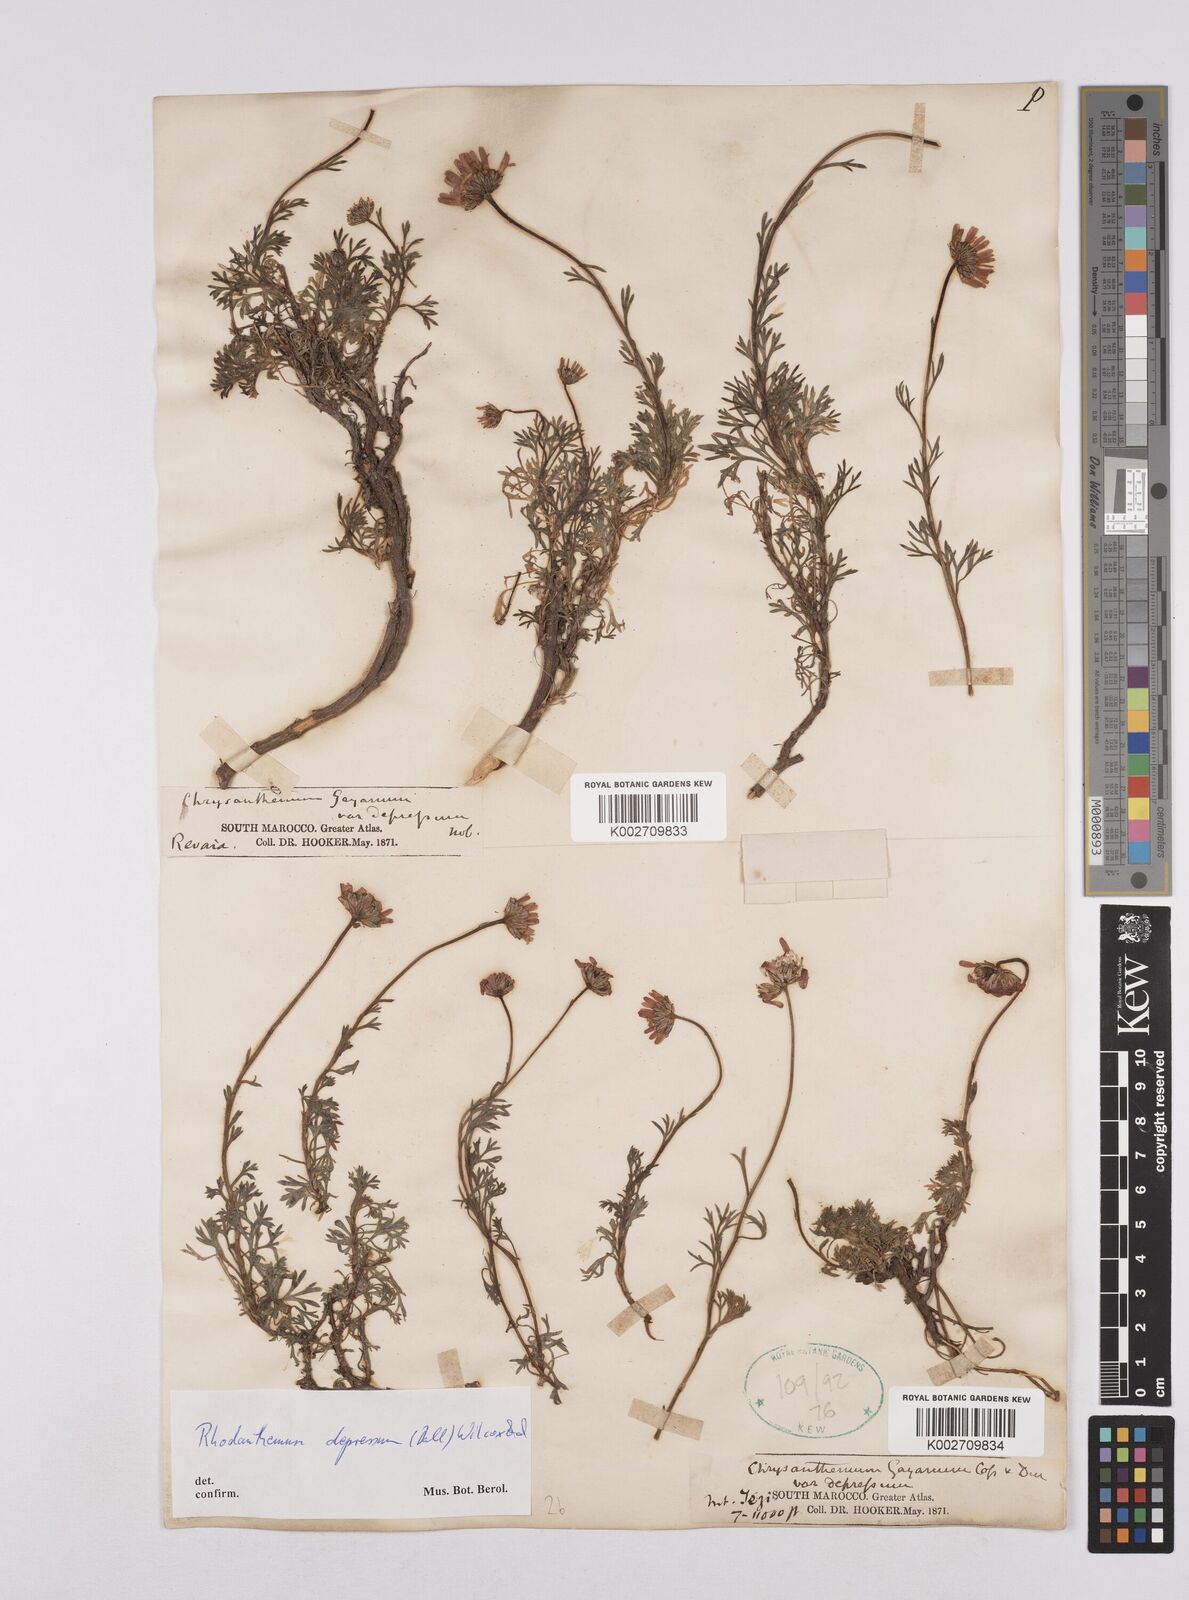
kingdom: Plantae
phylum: Tracheophyta
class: Magnoliopsida
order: Asterales
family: Asteraceae
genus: Rhodanthemum
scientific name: Rhodanthemum depressum
